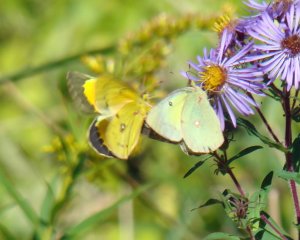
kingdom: Animalia
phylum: Arthropoda
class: Insecta
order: Lepidoptera
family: Pieridae
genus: Colias
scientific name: Colias philodice
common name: Clouded Sulphur
